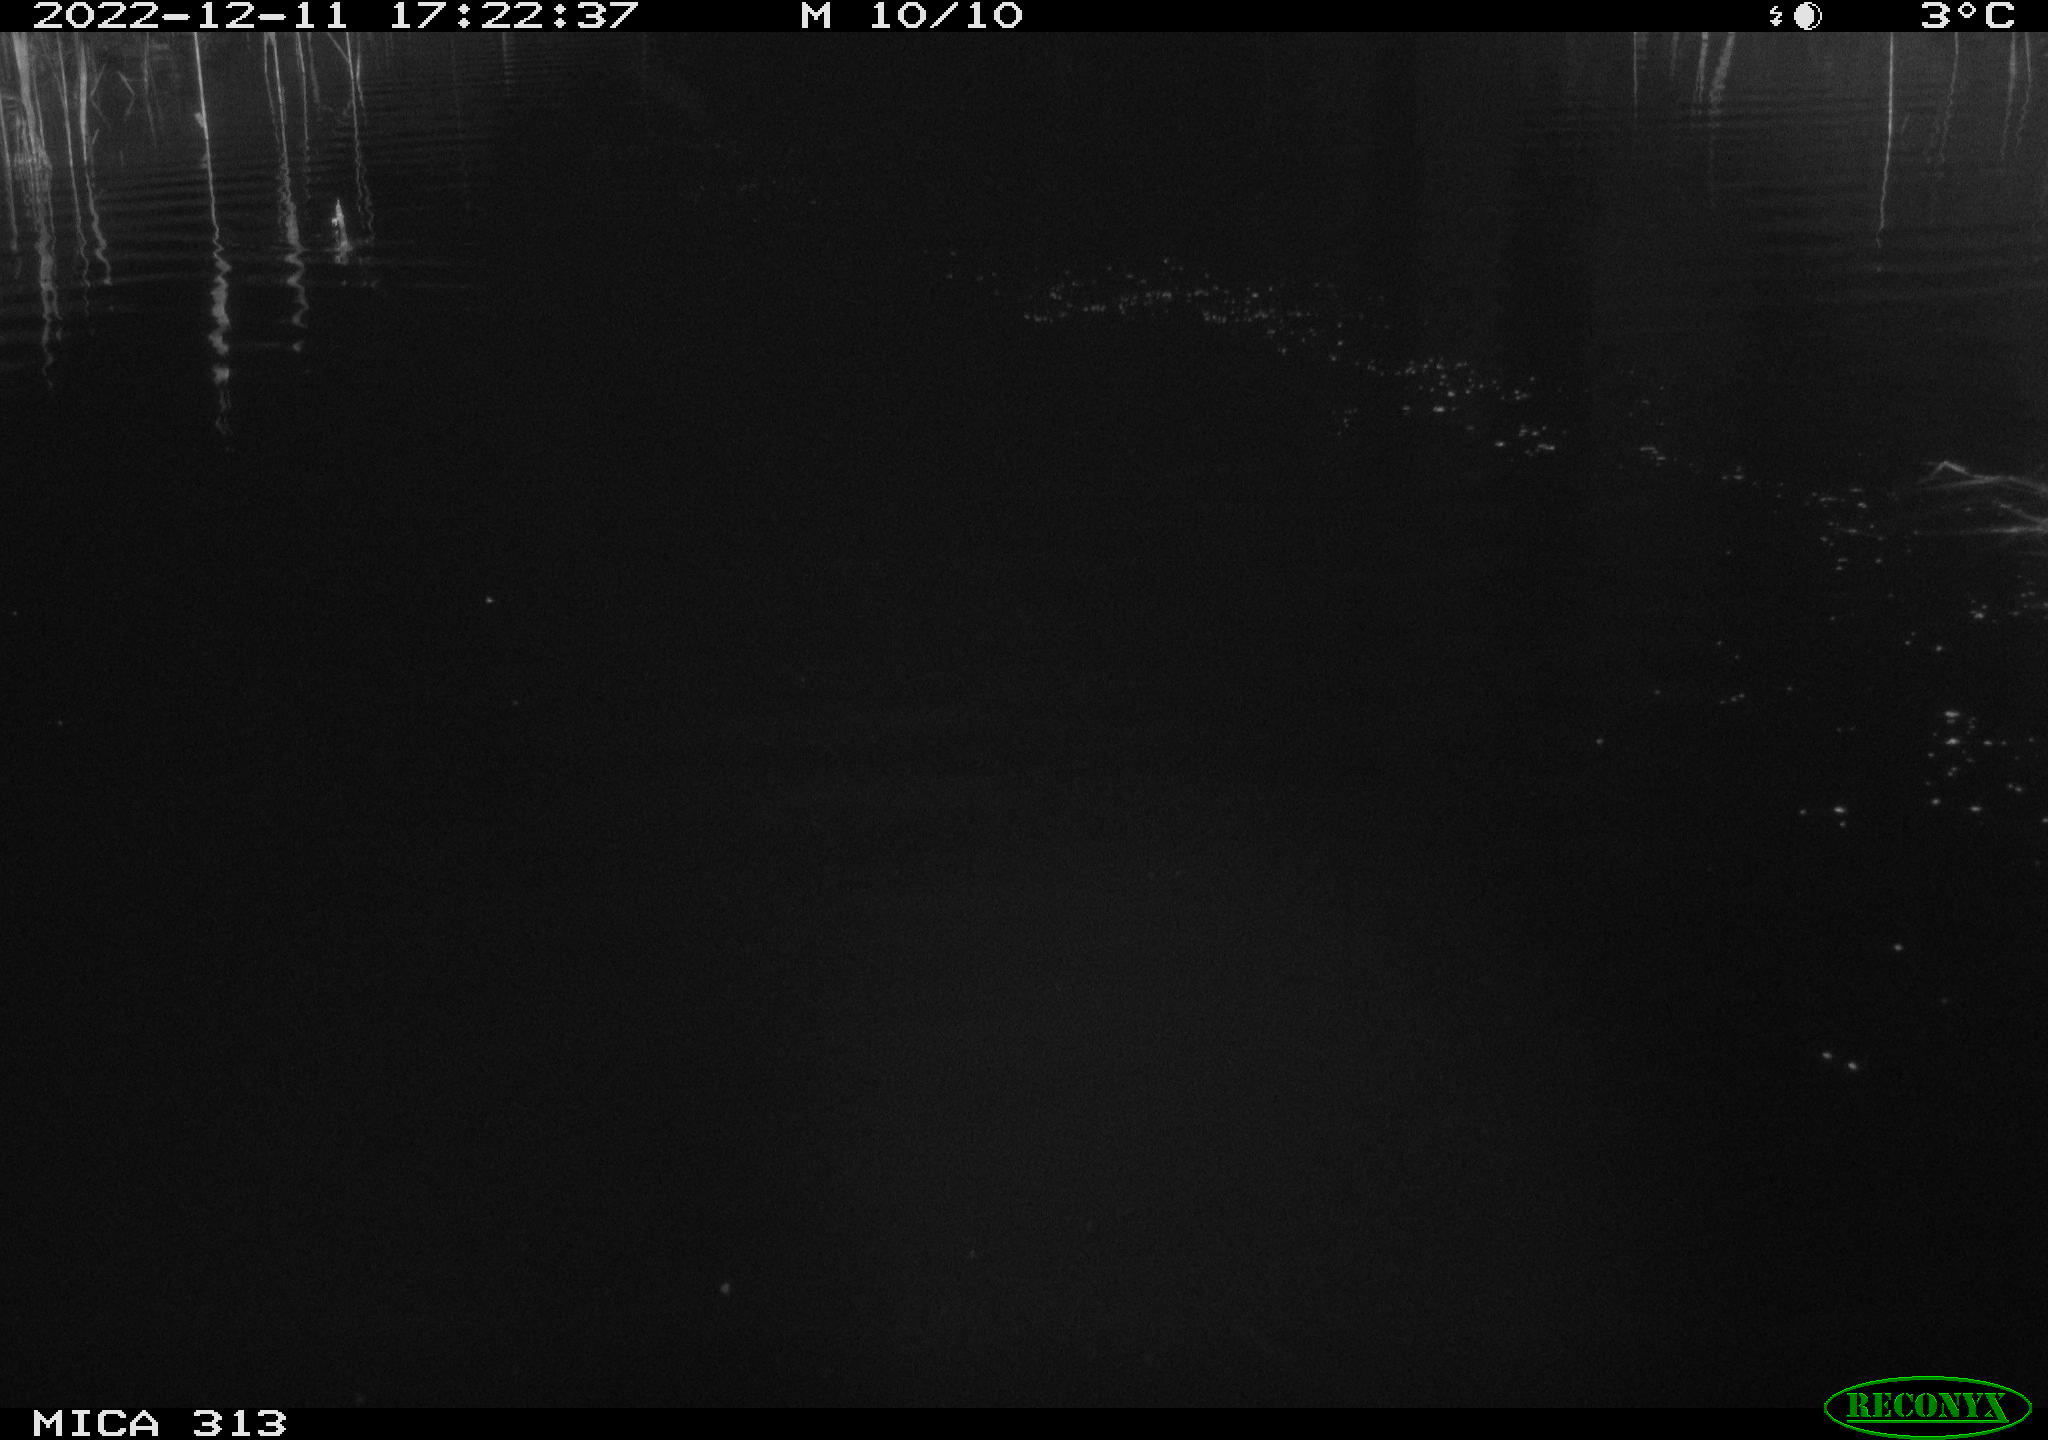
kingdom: Animalia
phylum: Chordata
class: Aves
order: Anseriformes
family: Anatidae
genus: Anas
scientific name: Anas
